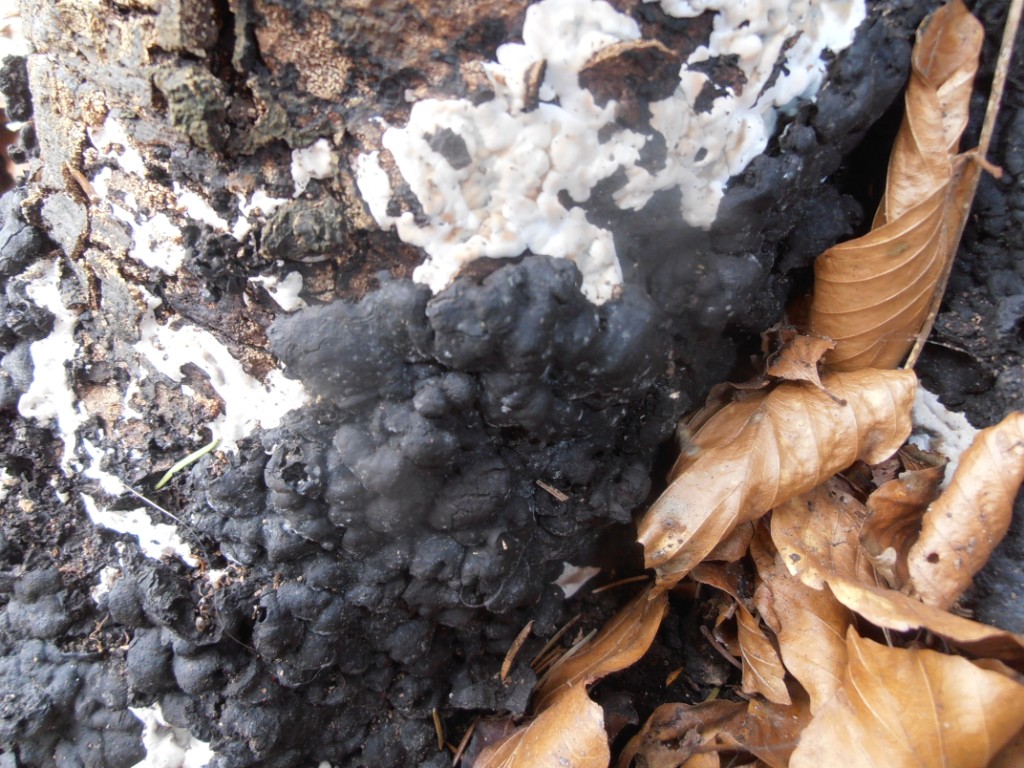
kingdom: Fungi
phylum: Ascomycota
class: Sordariomycetes
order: Xylariales
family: Xylariaceae
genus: Kretzschmaria
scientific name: Kretzschmaria deusta
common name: stor kulsvamp
